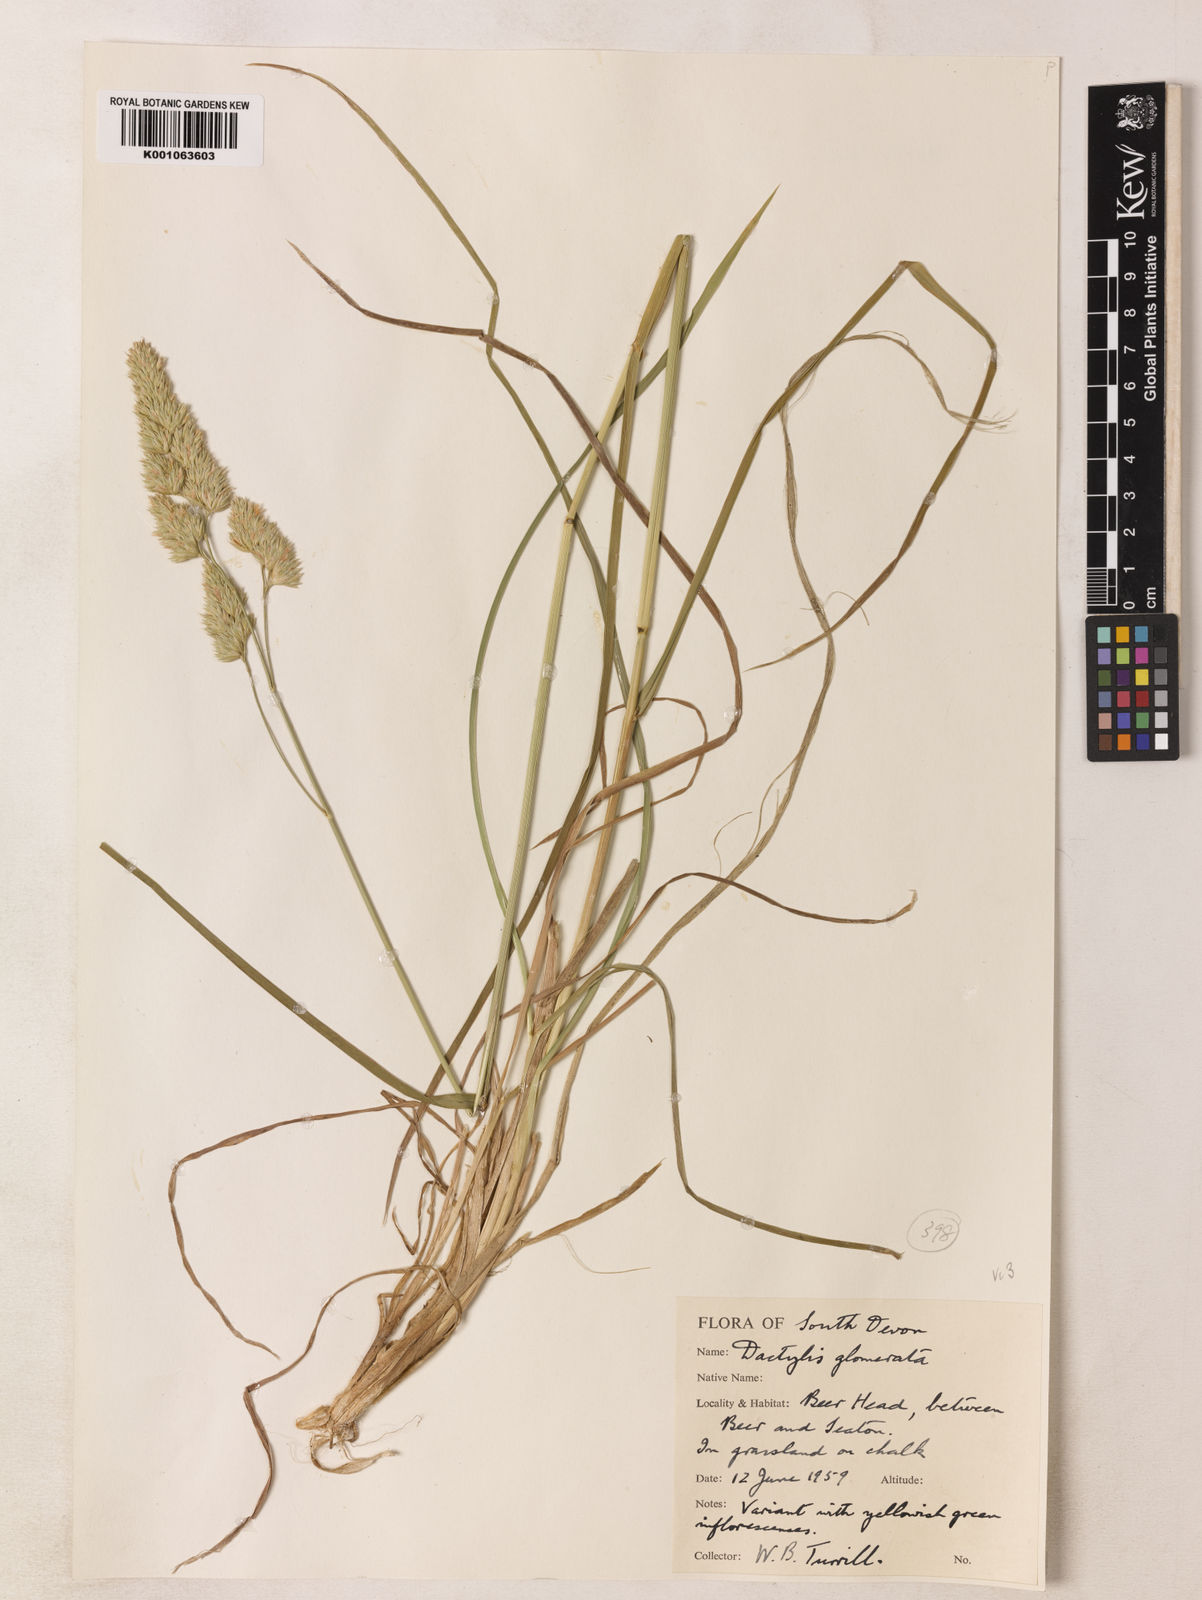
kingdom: Plantae
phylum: Tracheophyta
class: Liliopsida
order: Poales
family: Poaceae
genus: Dactylis
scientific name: Dactylis glomerata
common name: Orchardgrass
